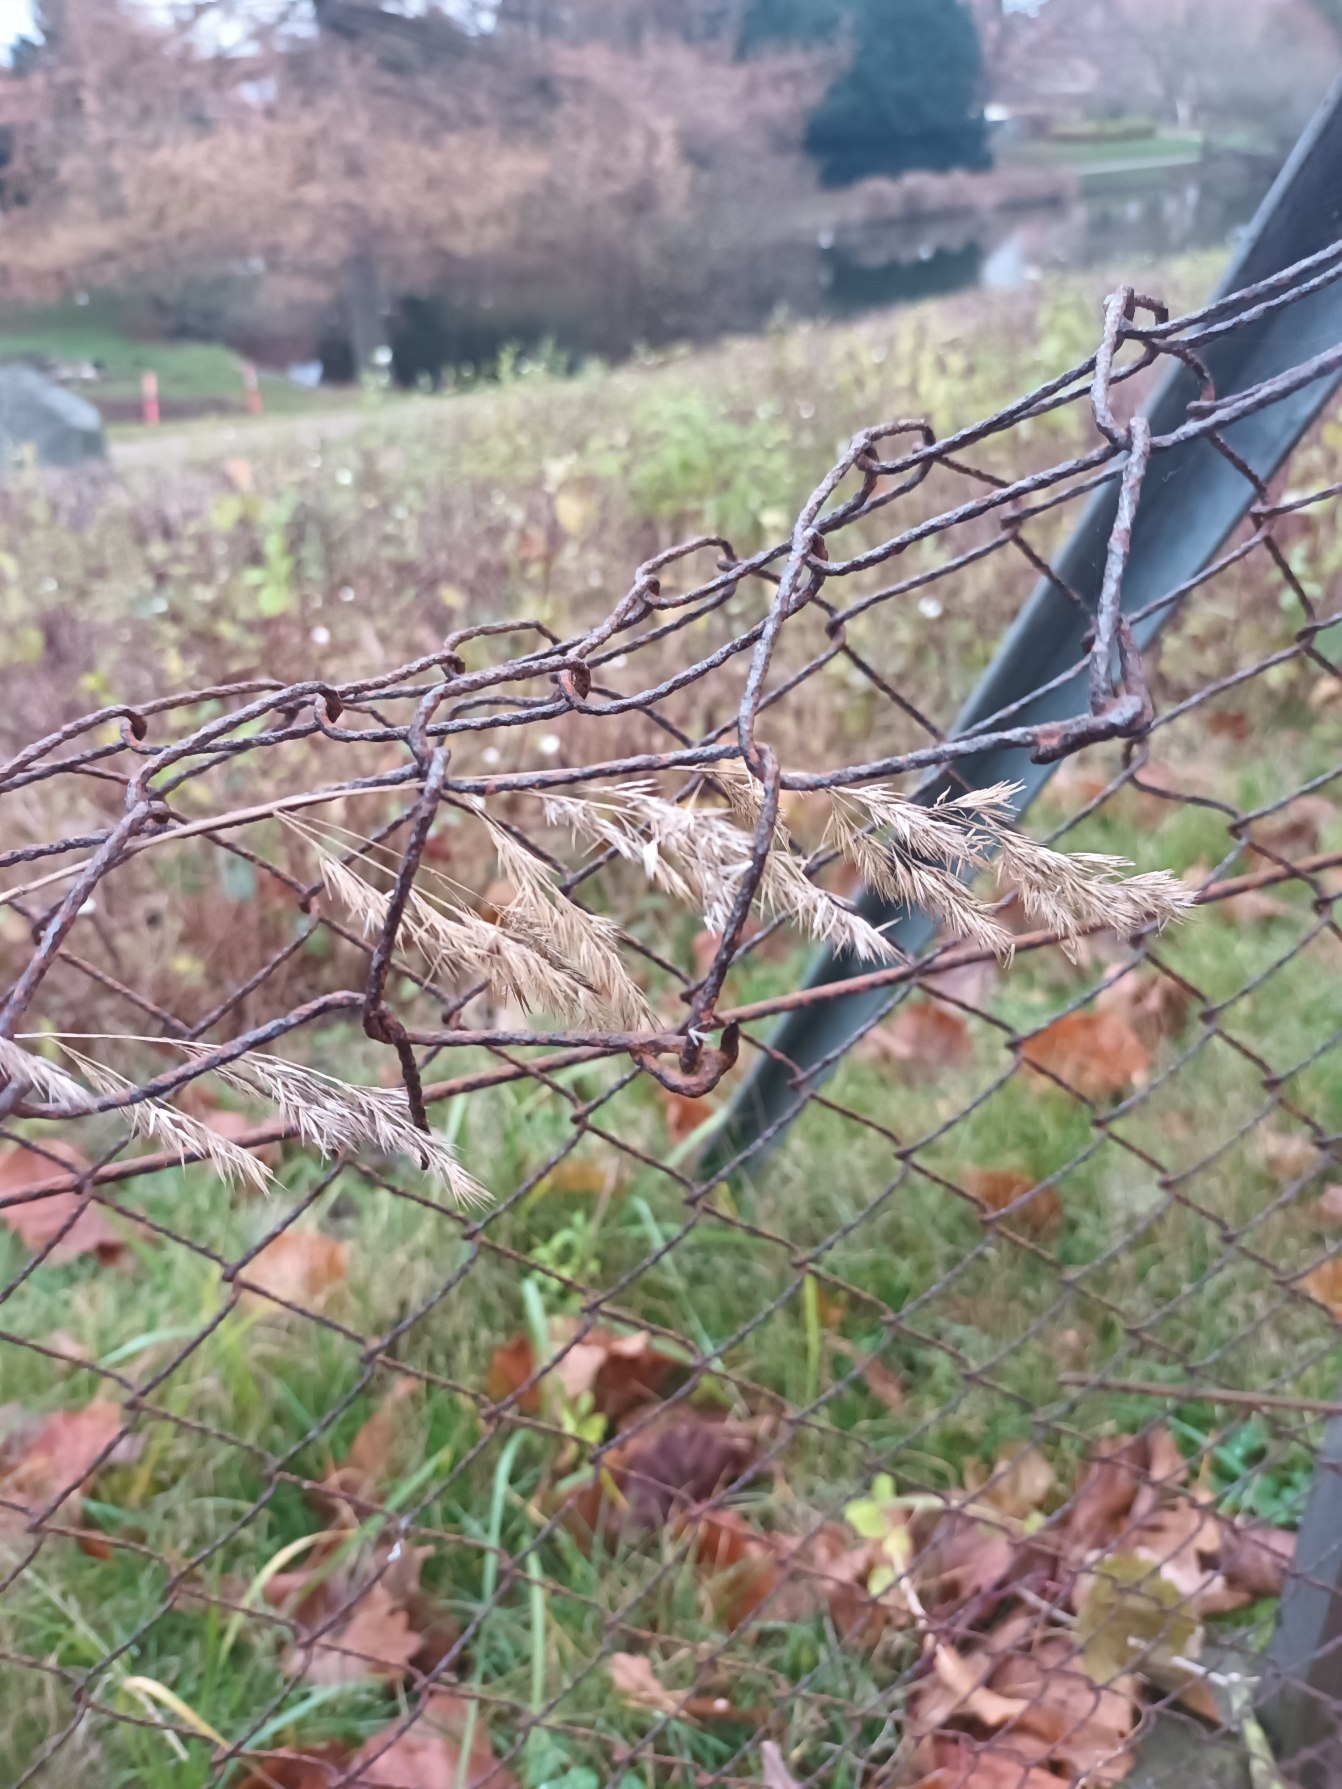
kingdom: Plantae
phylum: Tracheophyta
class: Liliopsida
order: Poales
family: Poaceae
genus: Calamagrostis
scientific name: Calamagrostis epigejos
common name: Bjerg-rørhvene
